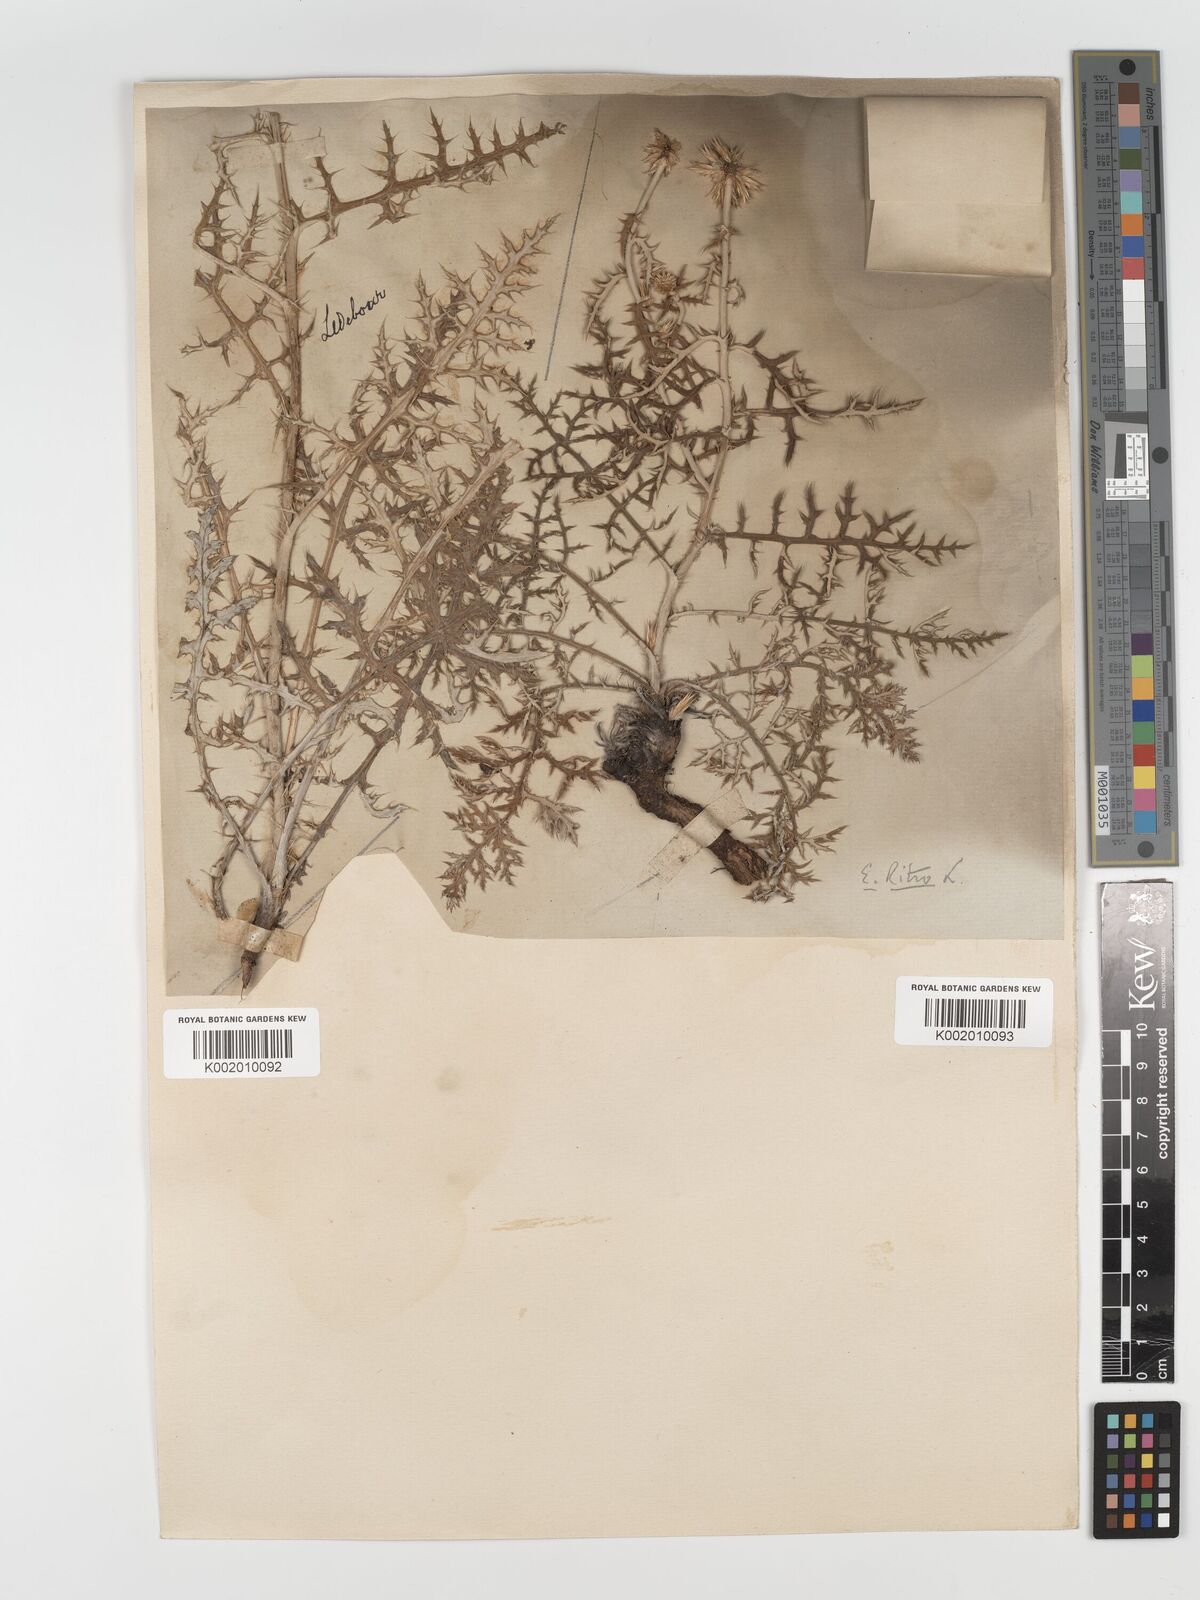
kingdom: Plantae
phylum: Tracheophyta
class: Magnoliopsida
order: Asterales
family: Asteraceae
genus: Echinops
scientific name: Echinops bannaticus
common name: Blue globe-thistle
